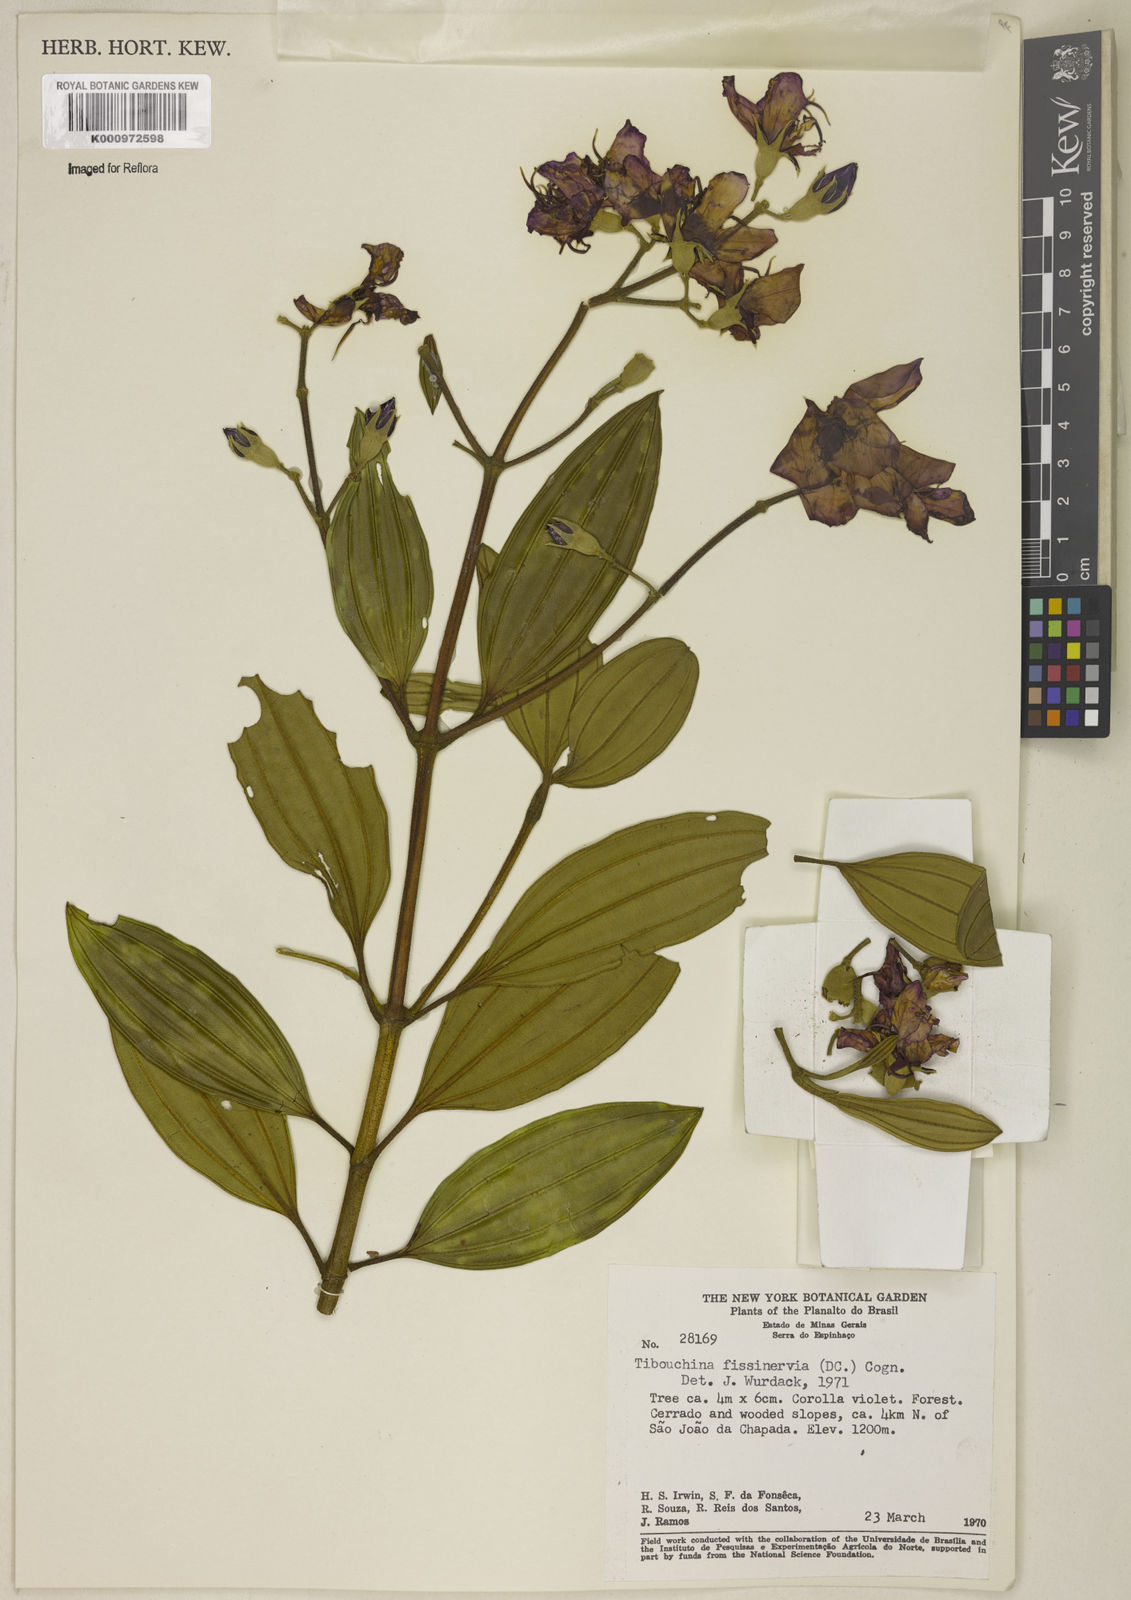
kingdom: Plantae
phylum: Tracheophyta
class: Magnoliopsida
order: Myrtales
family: Melastomataceae
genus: Pleroma
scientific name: Pleroma fissinervium
